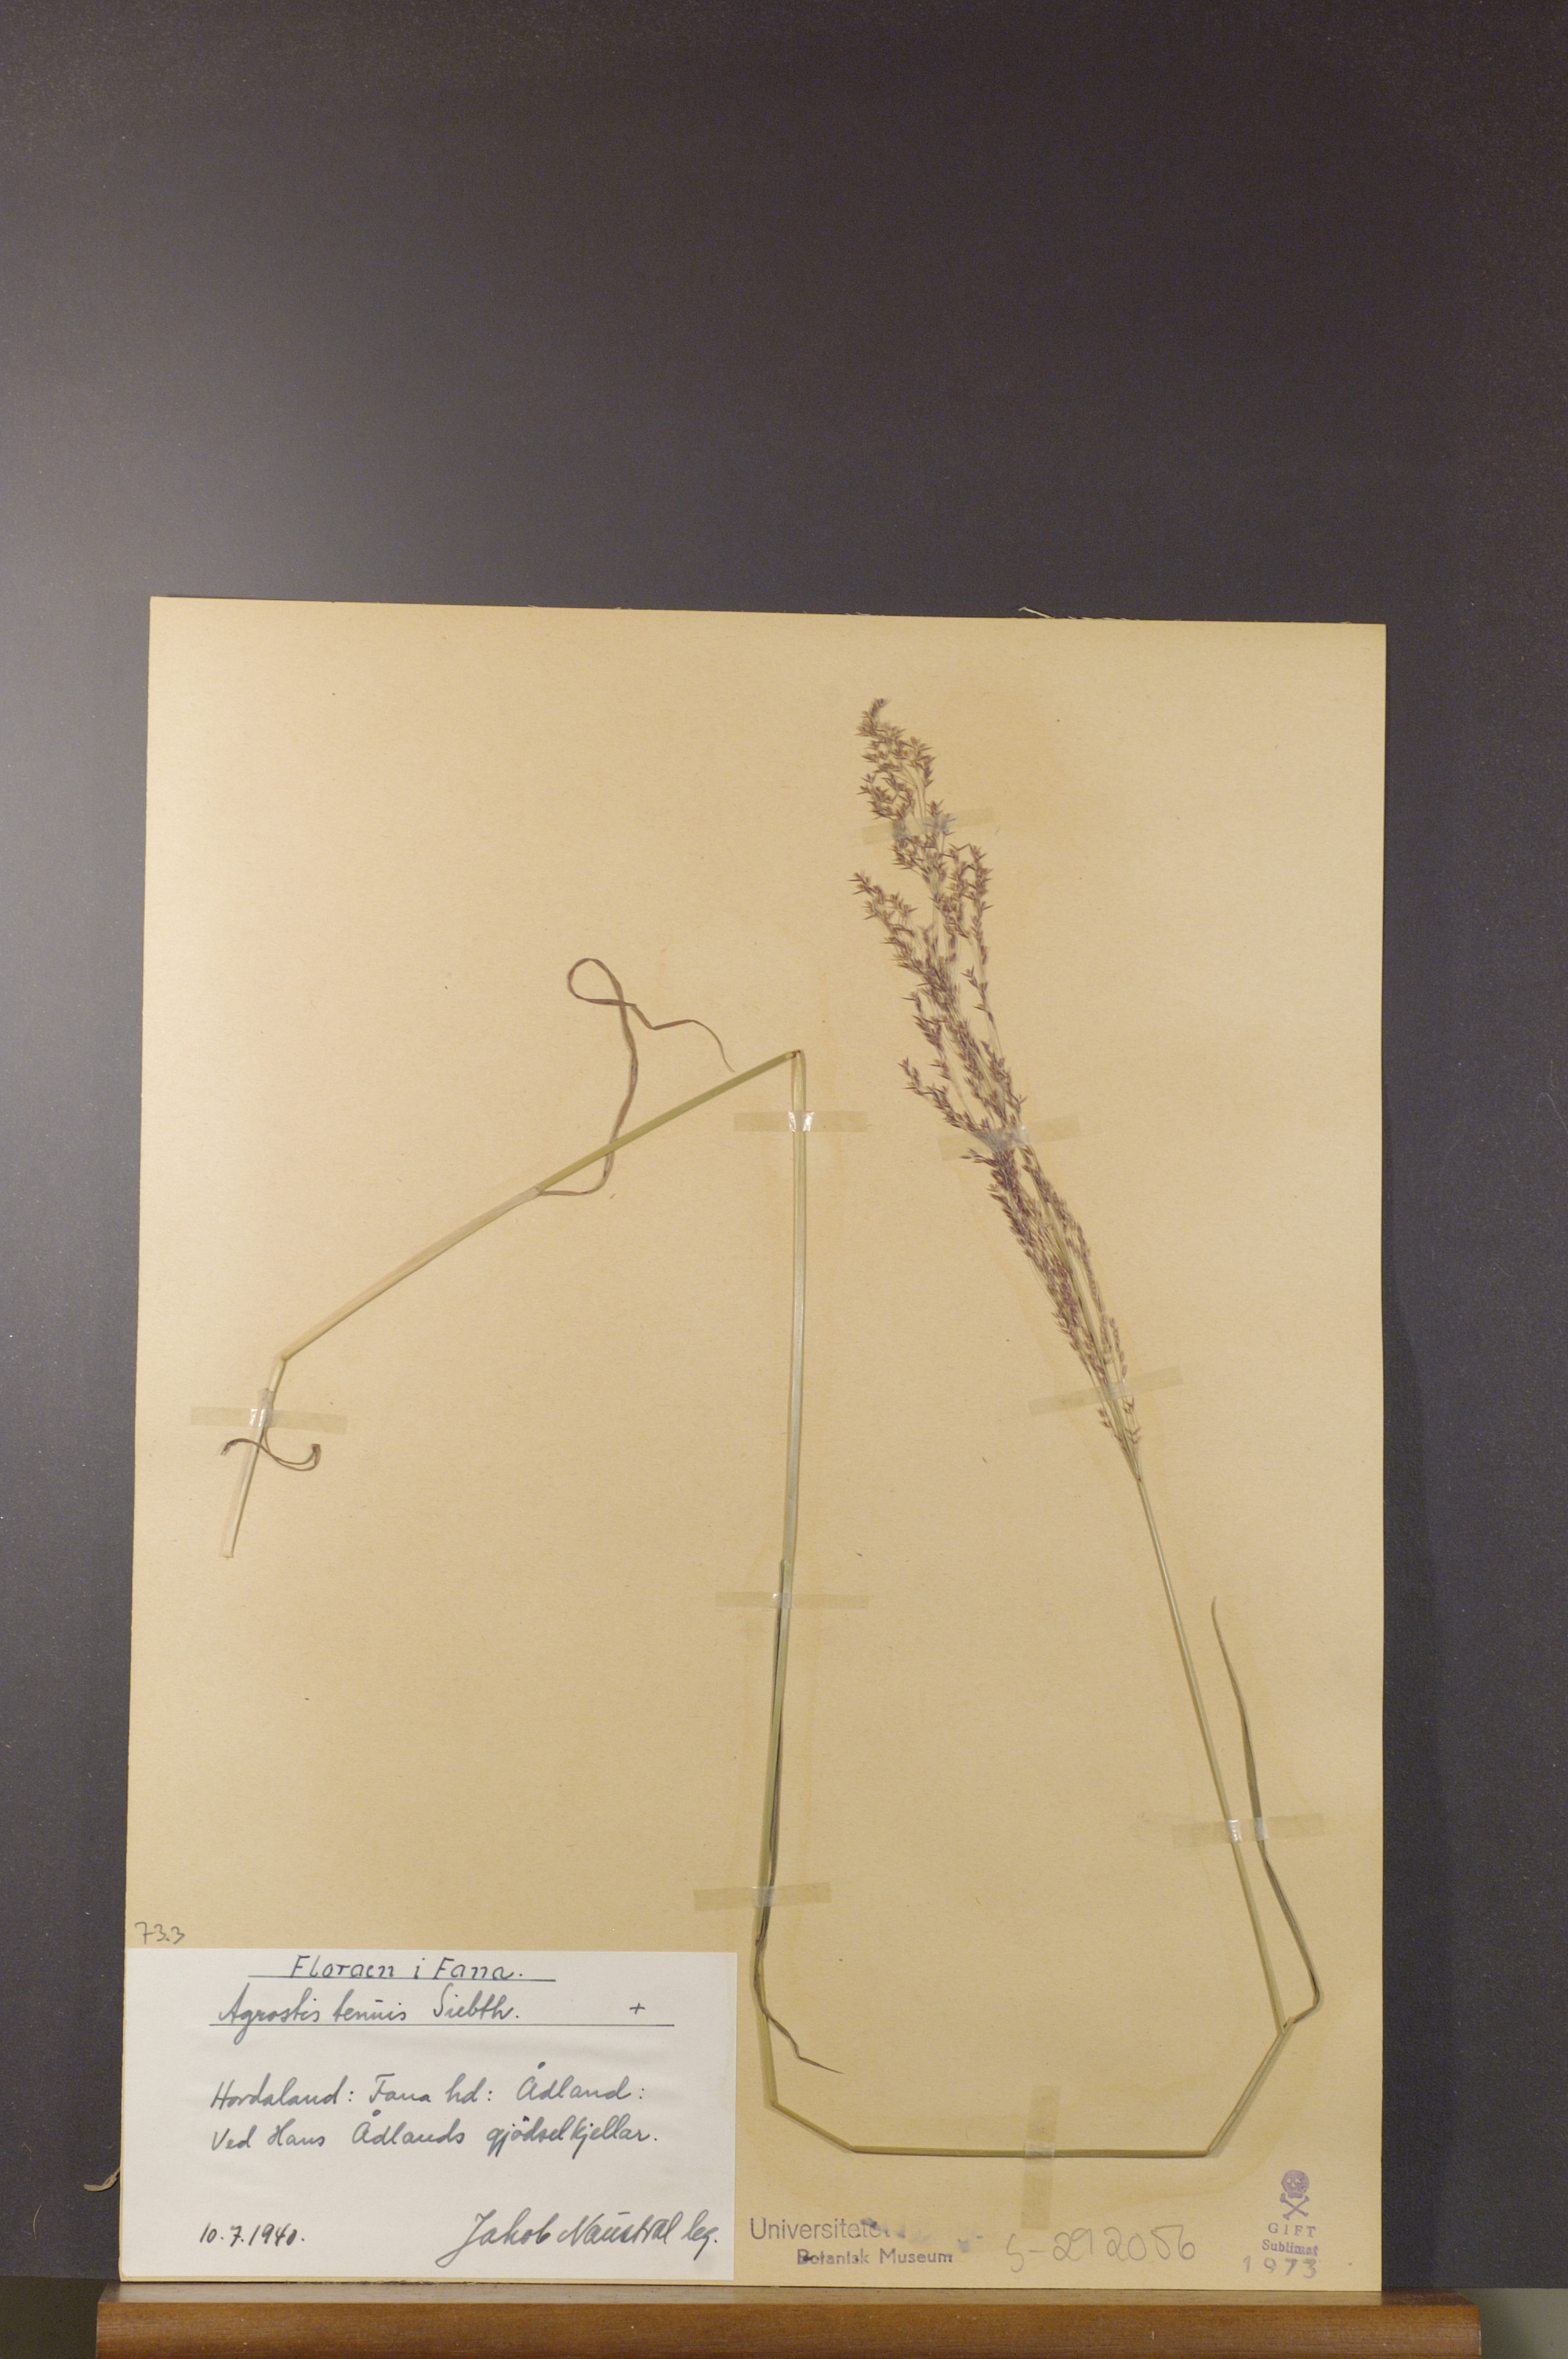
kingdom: Plantae
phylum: Tracheophyta
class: Liliopsida
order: Poales
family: Poaceae
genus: Agrostis
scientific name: Agrostis vinealis
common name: Brown bent
